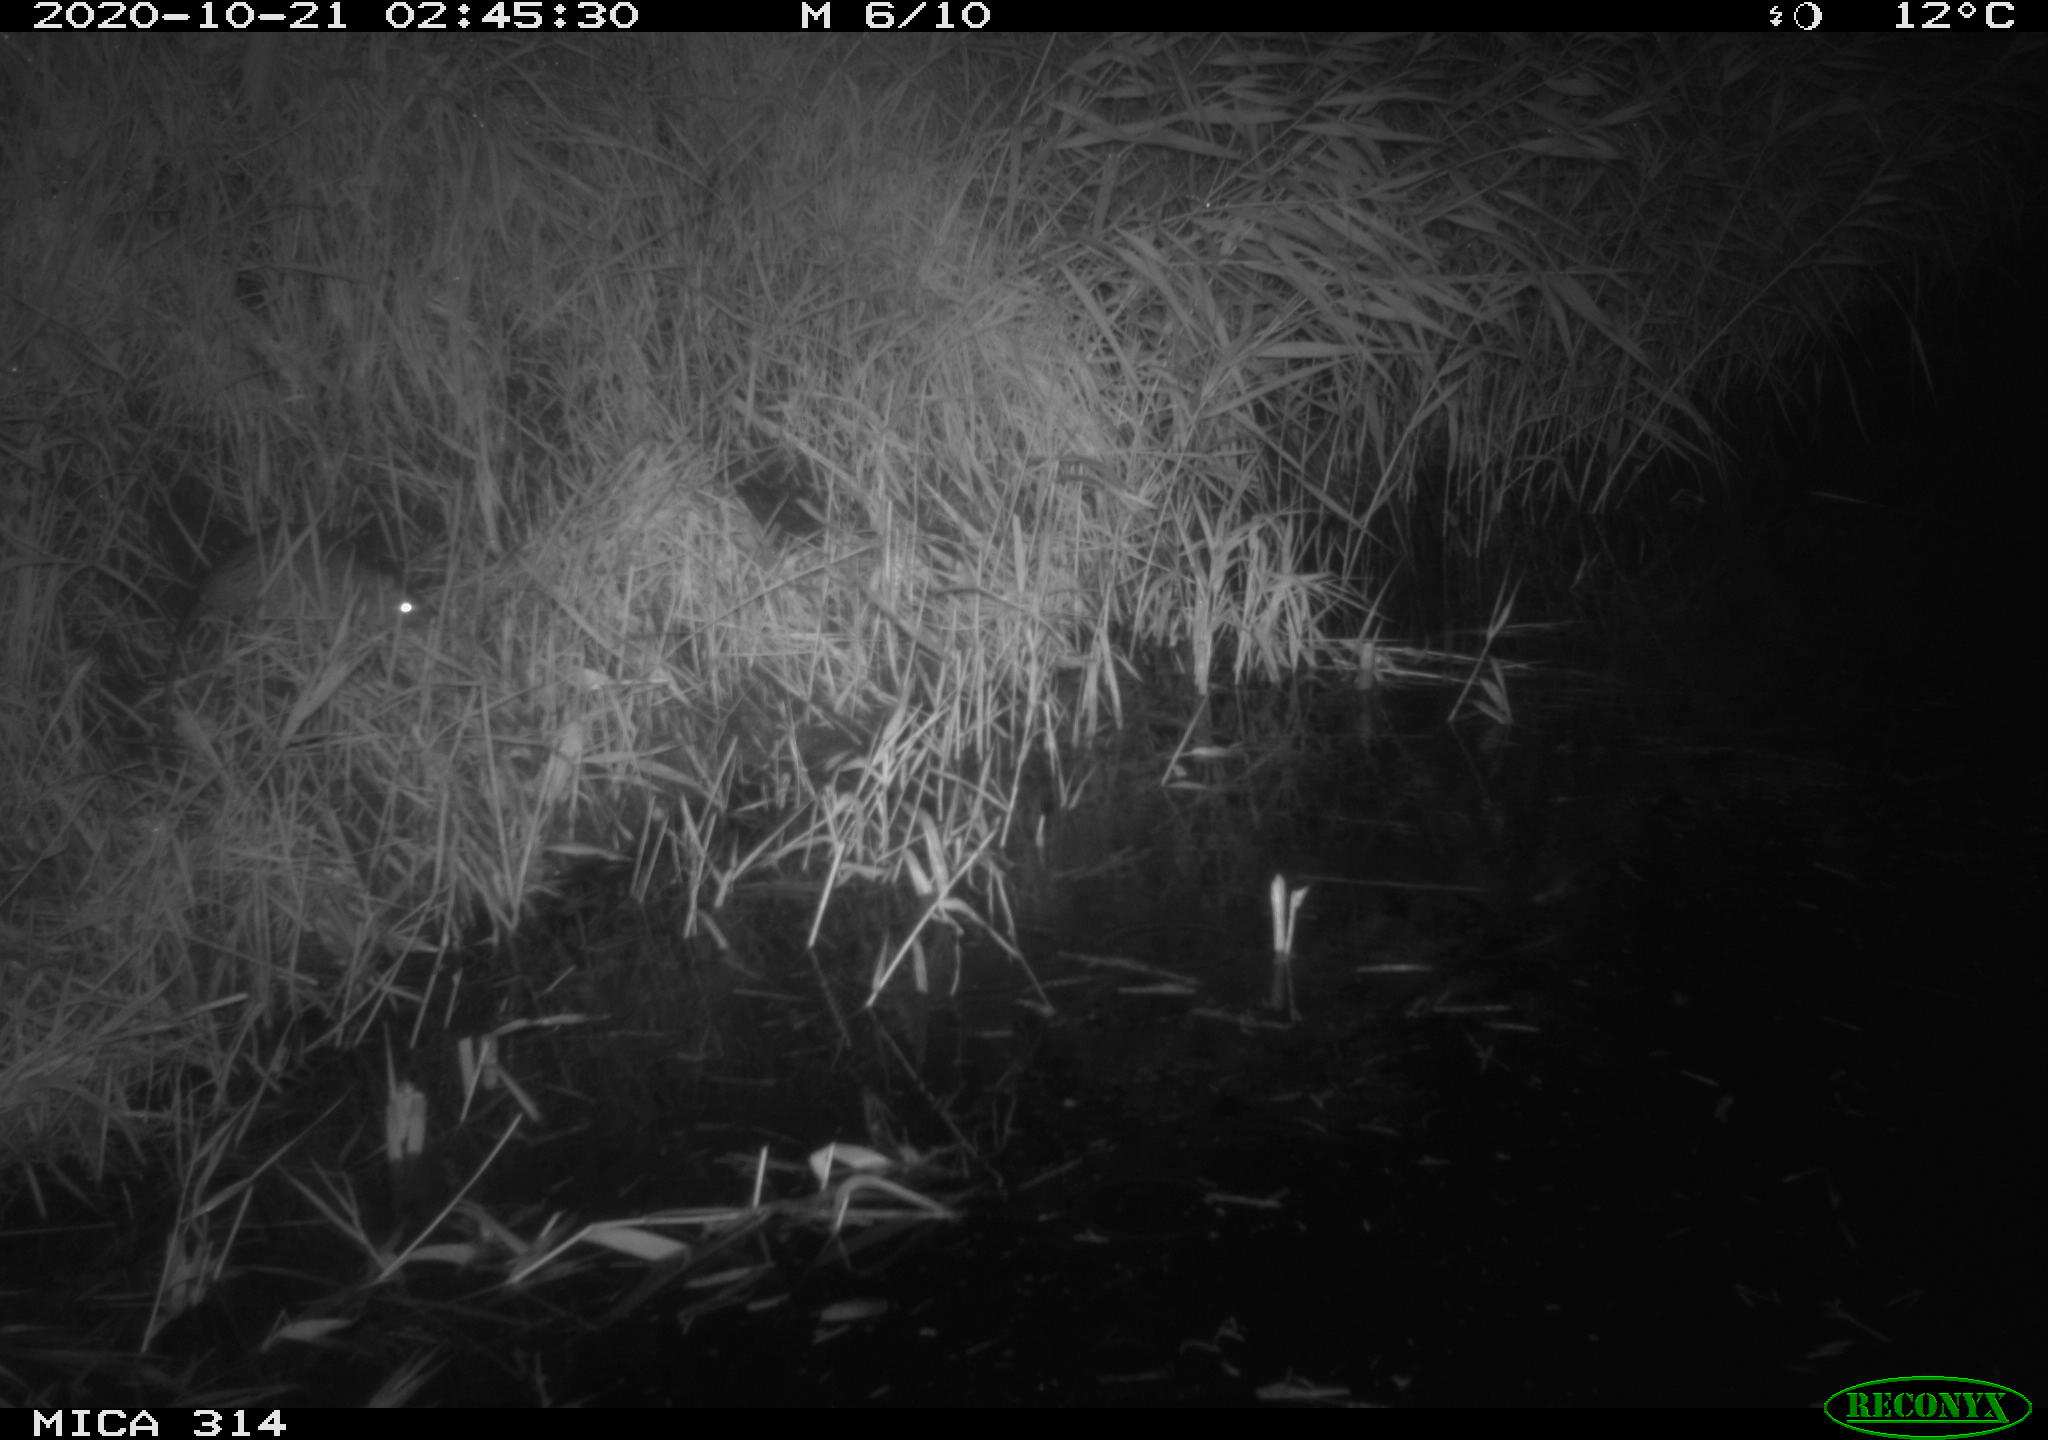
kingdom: Animalia
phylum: Chordata
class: Mammalia
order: Rodentia
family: Muridae
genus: Rattus
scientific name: Rattus norvegicus
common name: Brown rat
